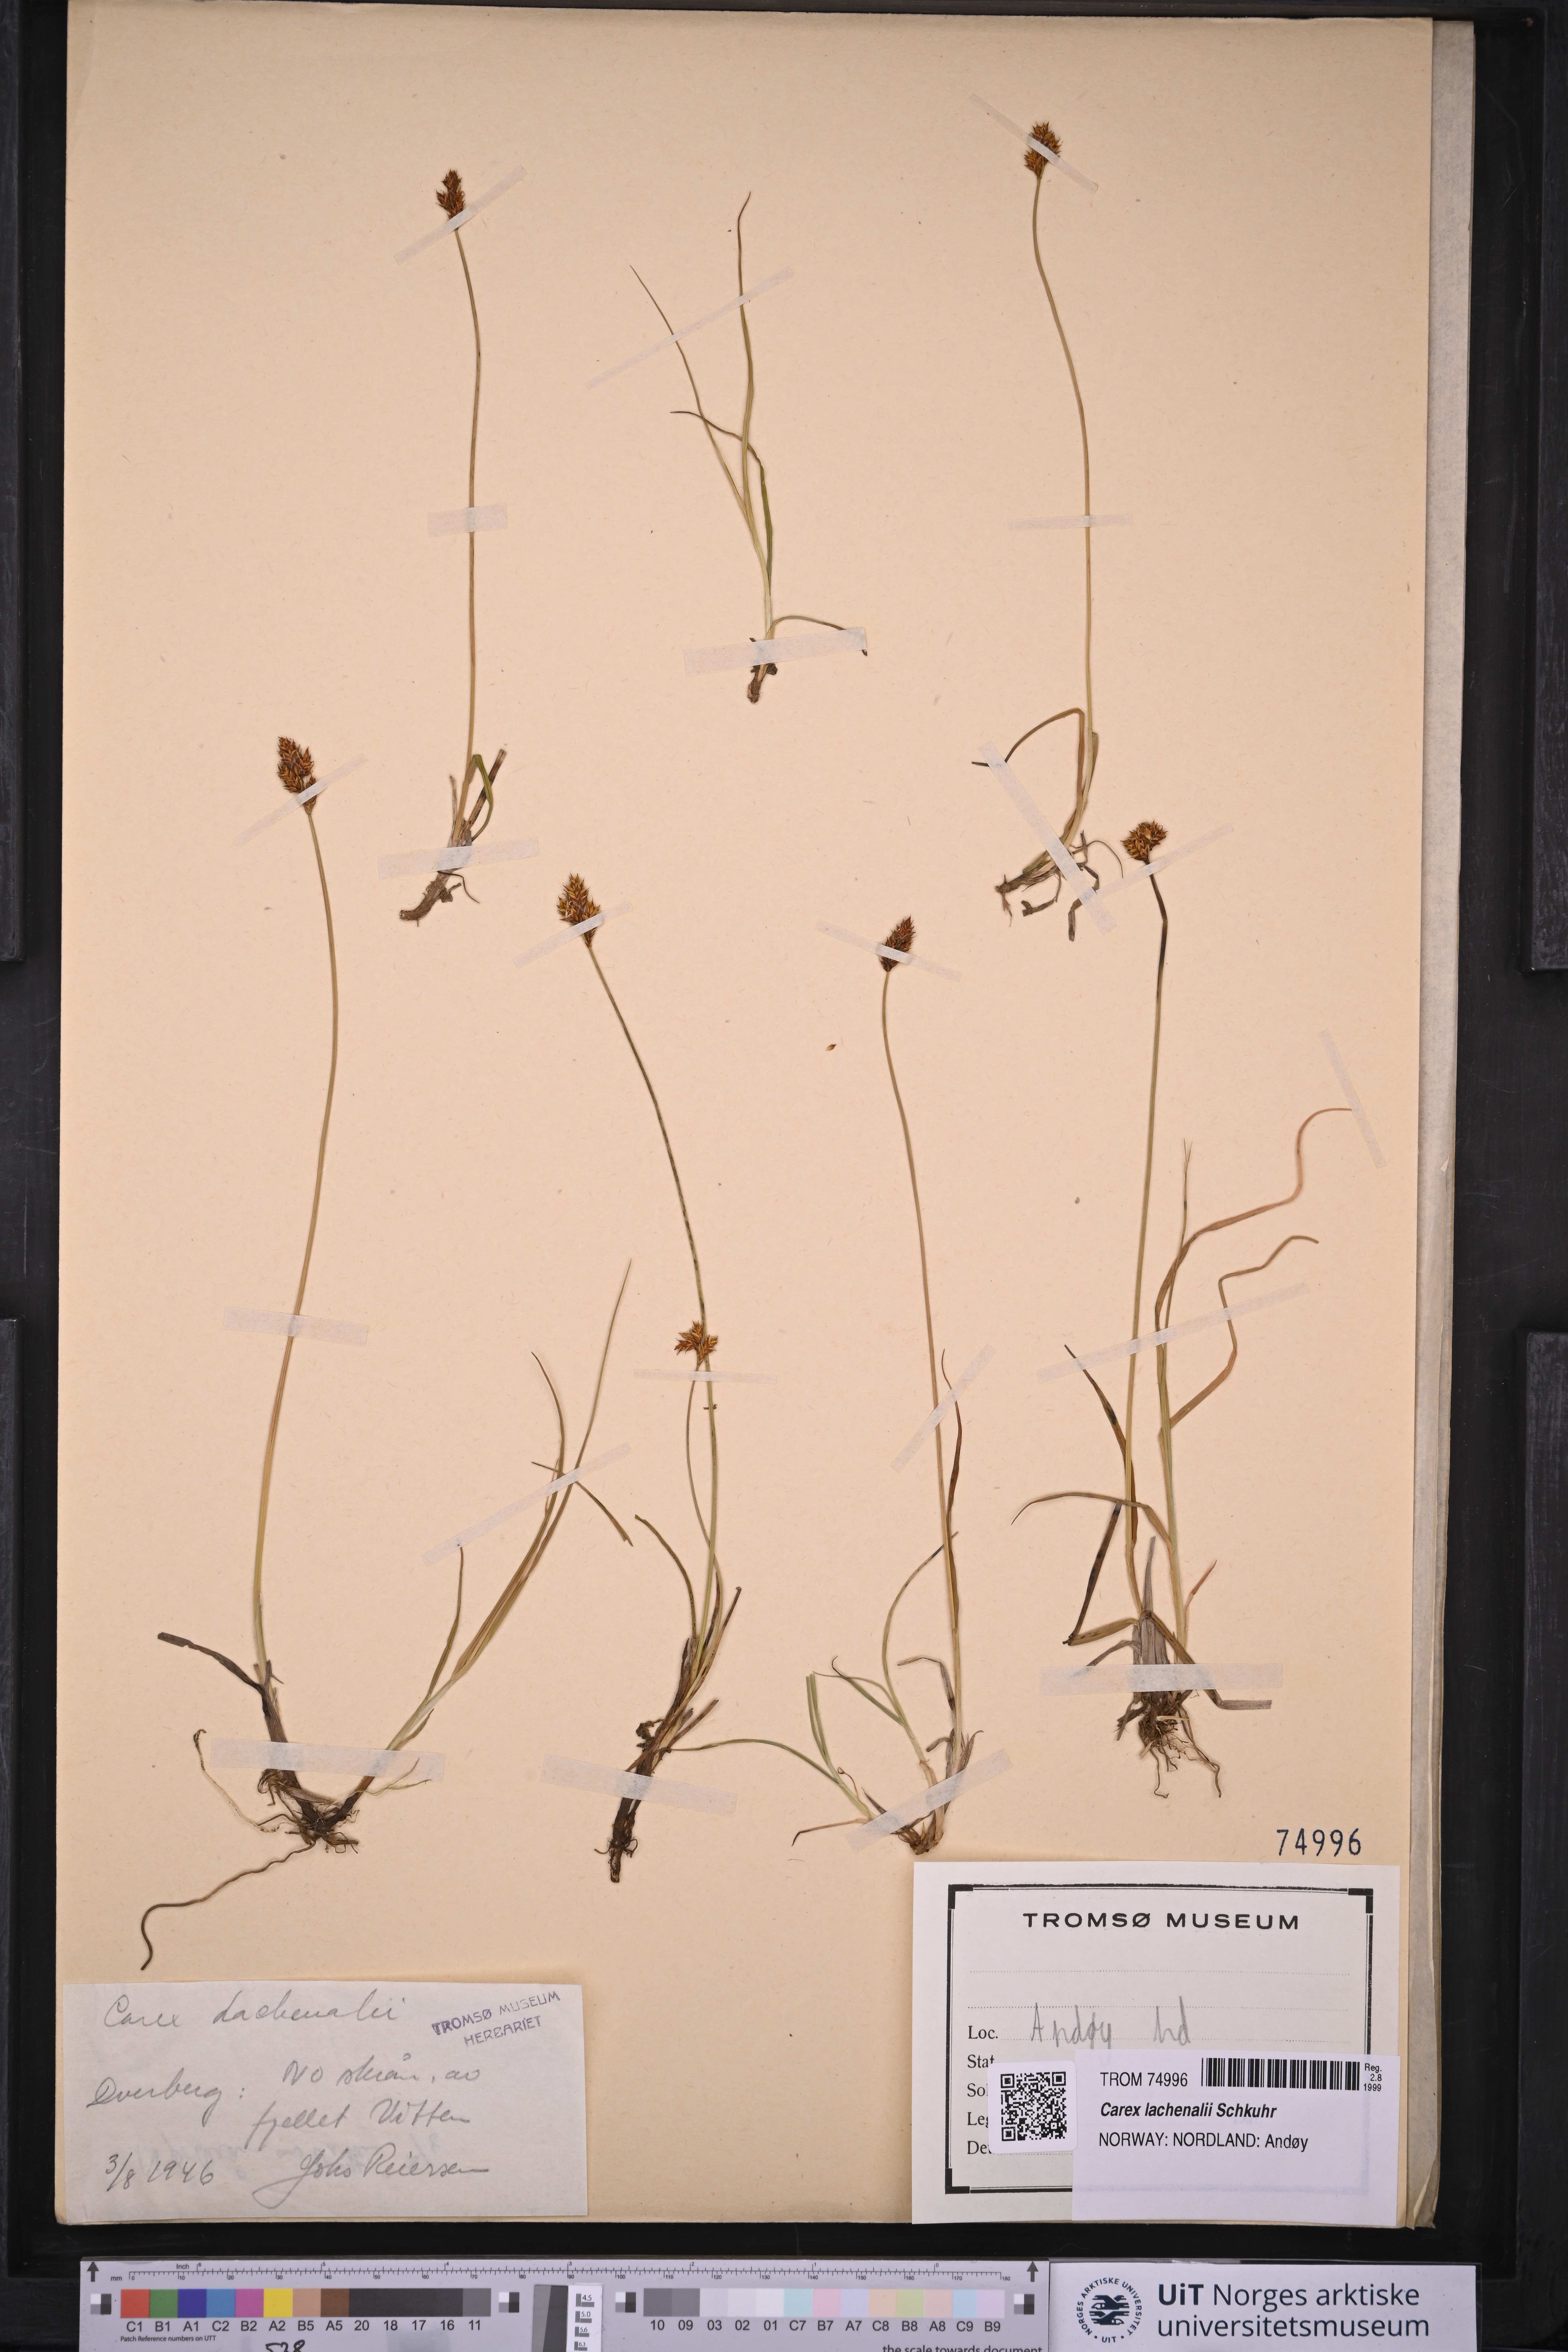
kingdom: Plantae
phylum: Tracheophyta
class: Liliopsida
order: Poales
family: Cyperaceae
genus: Carex
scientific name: Carex lachenalii
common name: Hare's-foot sedge
